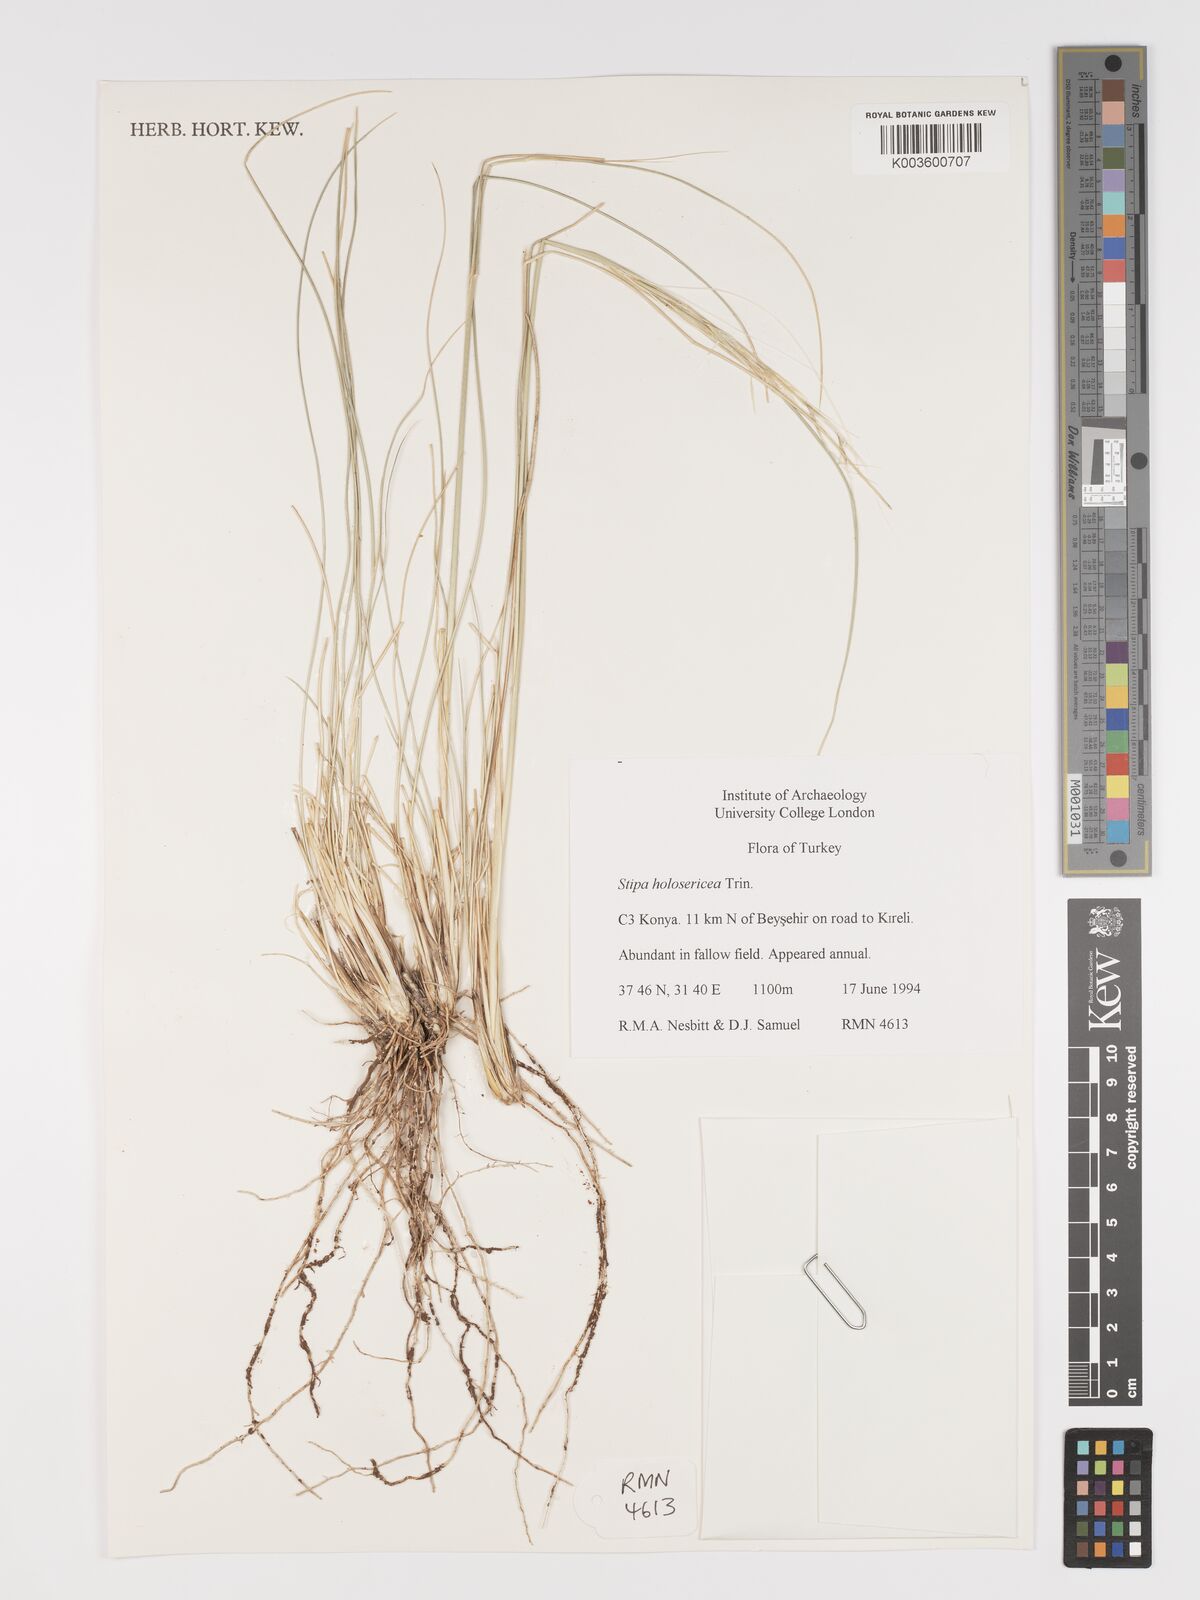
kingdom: Plantae
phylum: Tracheophyta
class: Liliopsida
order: Poales
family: Poaceae
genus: Stipa
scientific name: Stipa holosericea
